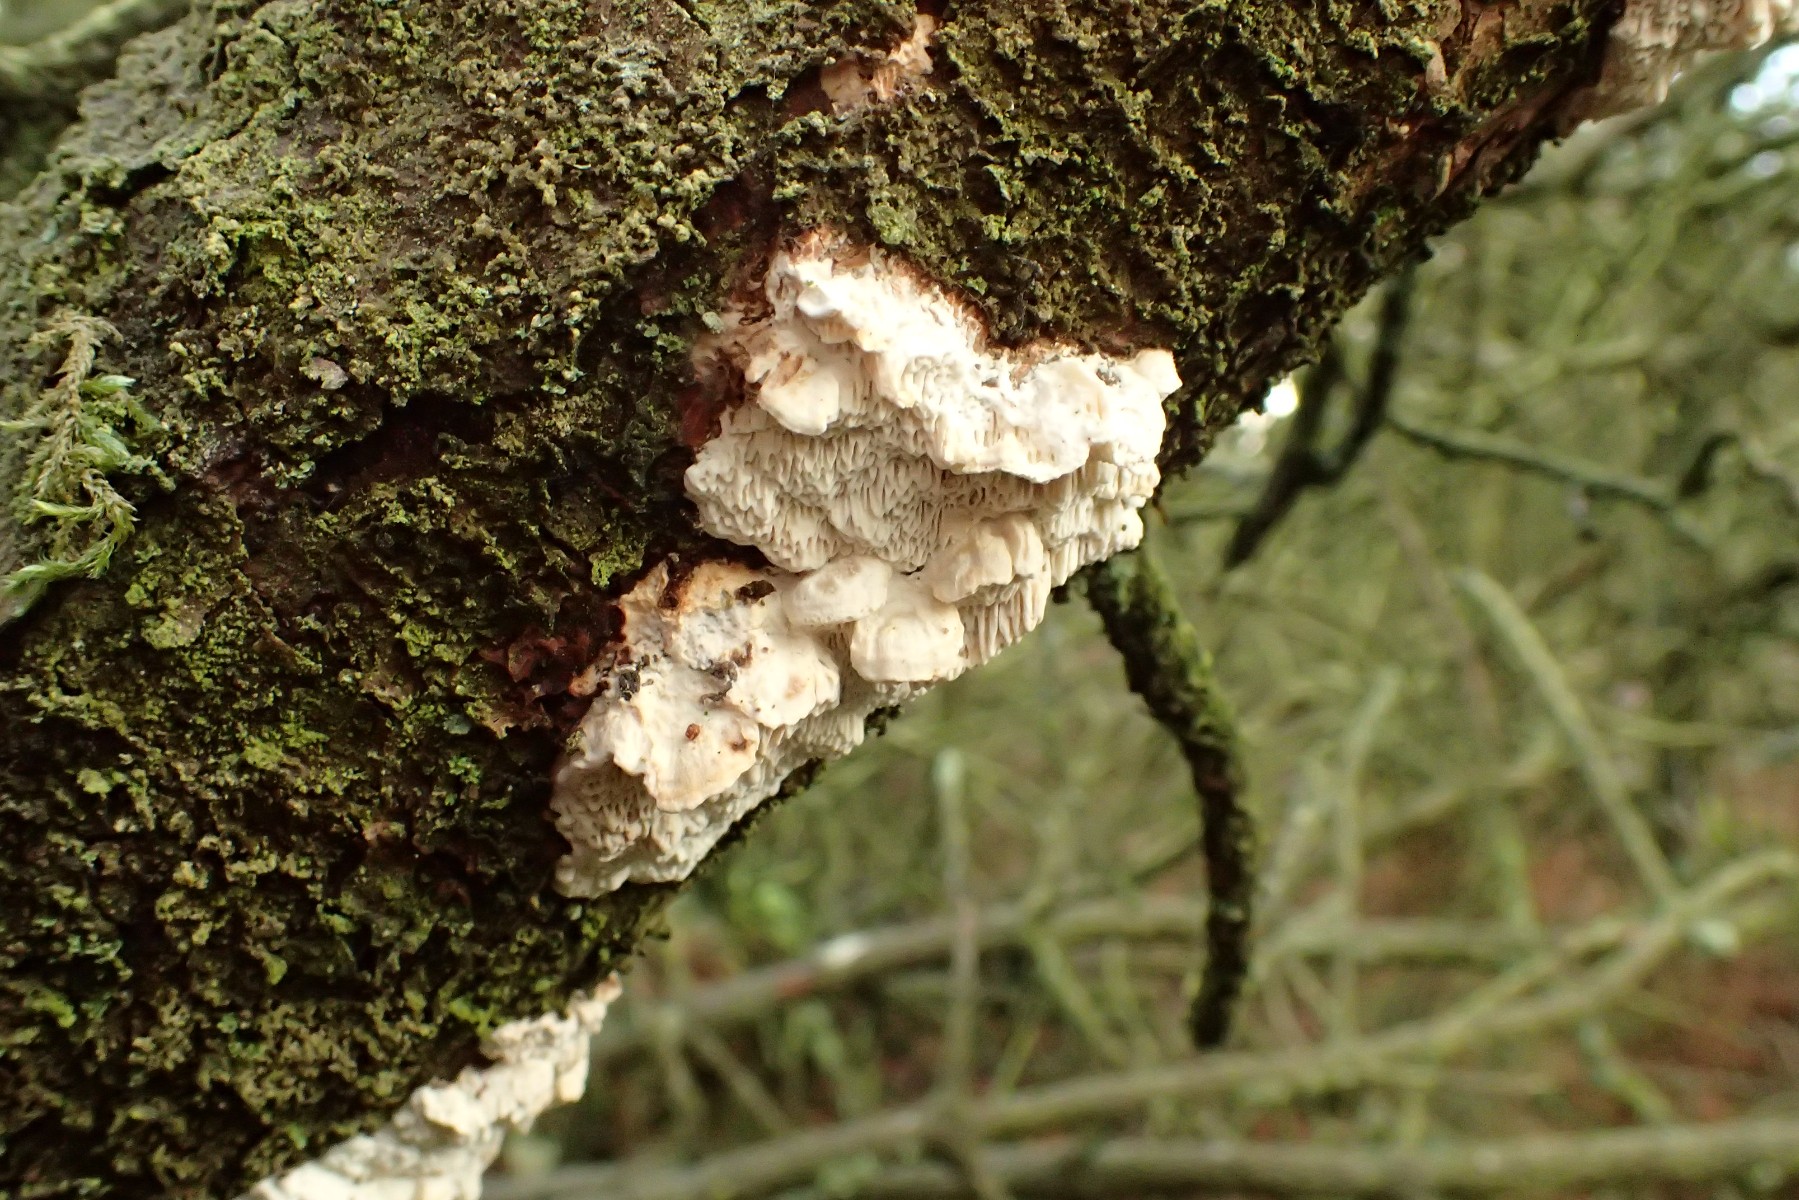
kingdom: Fungi
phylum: Basidiomycota
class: Agaricomycetes
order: Polyporales
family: Fomitopsidaceae
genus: Fomitopsis
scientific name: Fomitopsis
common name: fyrre-skiveporesvamp
